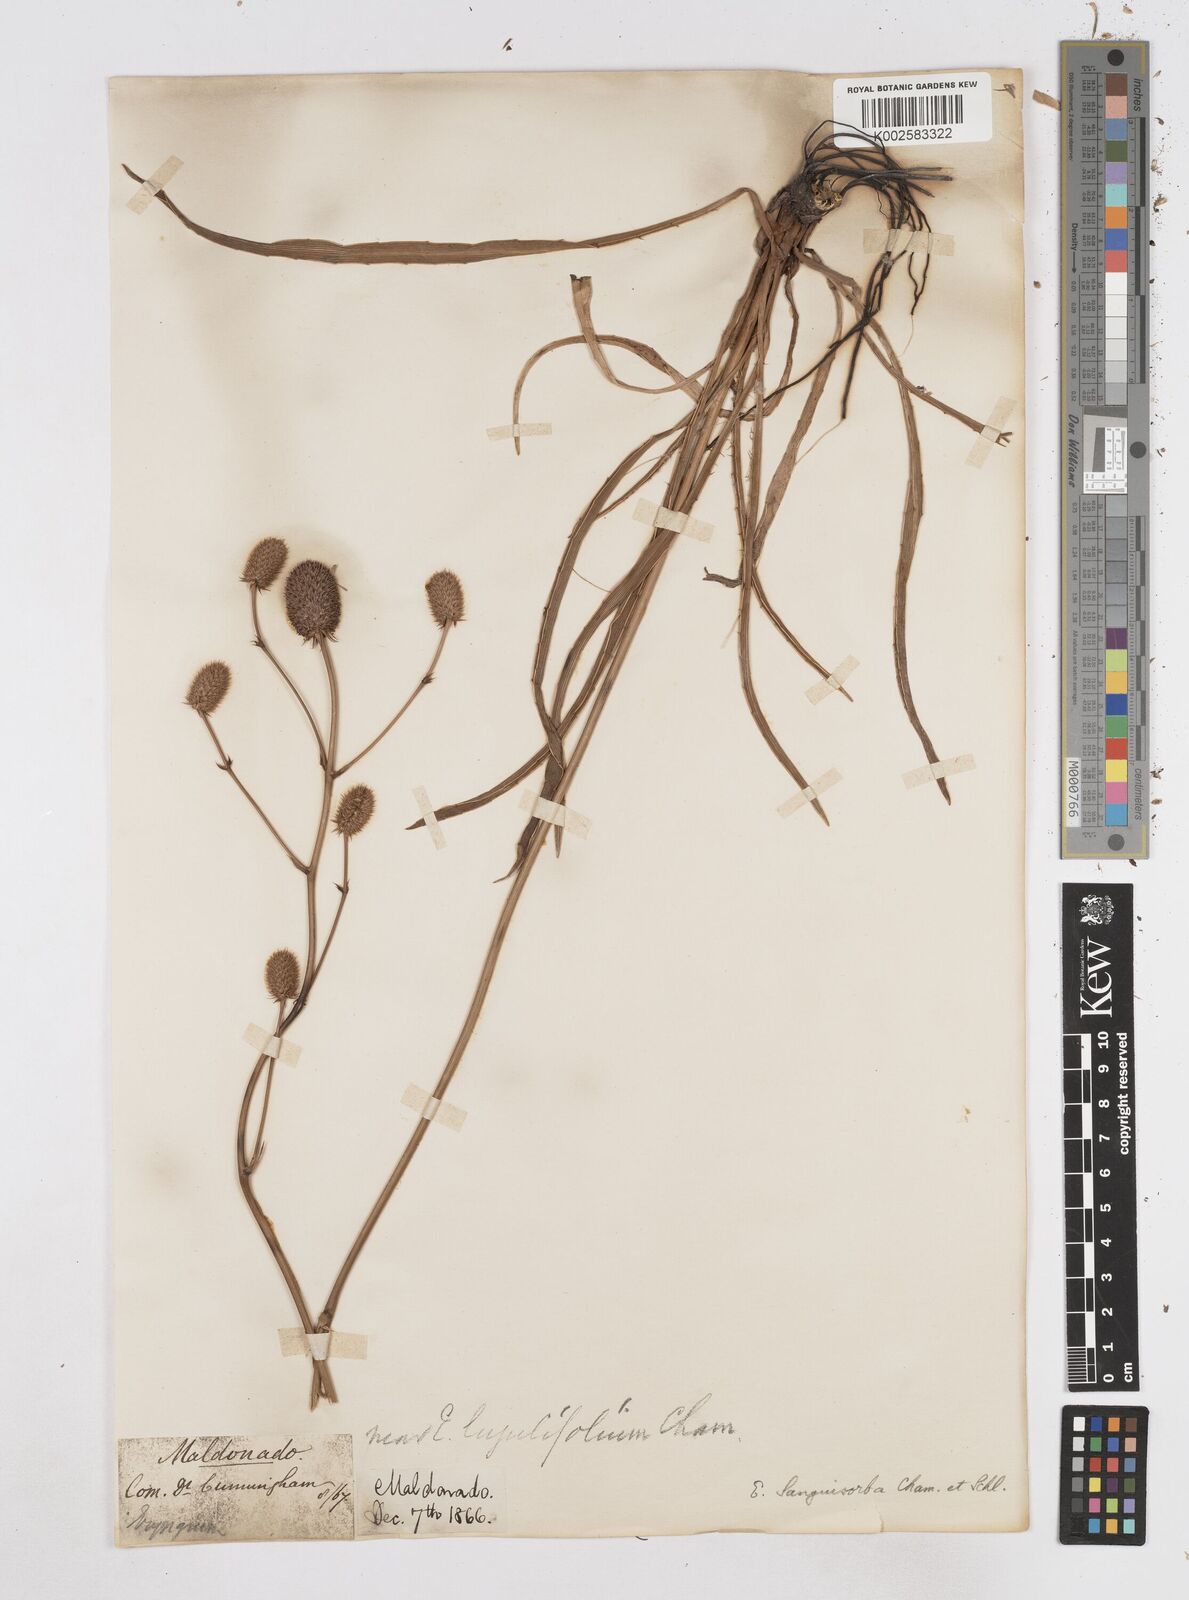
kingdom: Plantae
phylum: Tracheophyta
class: Magnoliopsida
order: Apiales
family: Apiaceae
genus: Eryngium
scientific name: Eryngium sanguisorba
